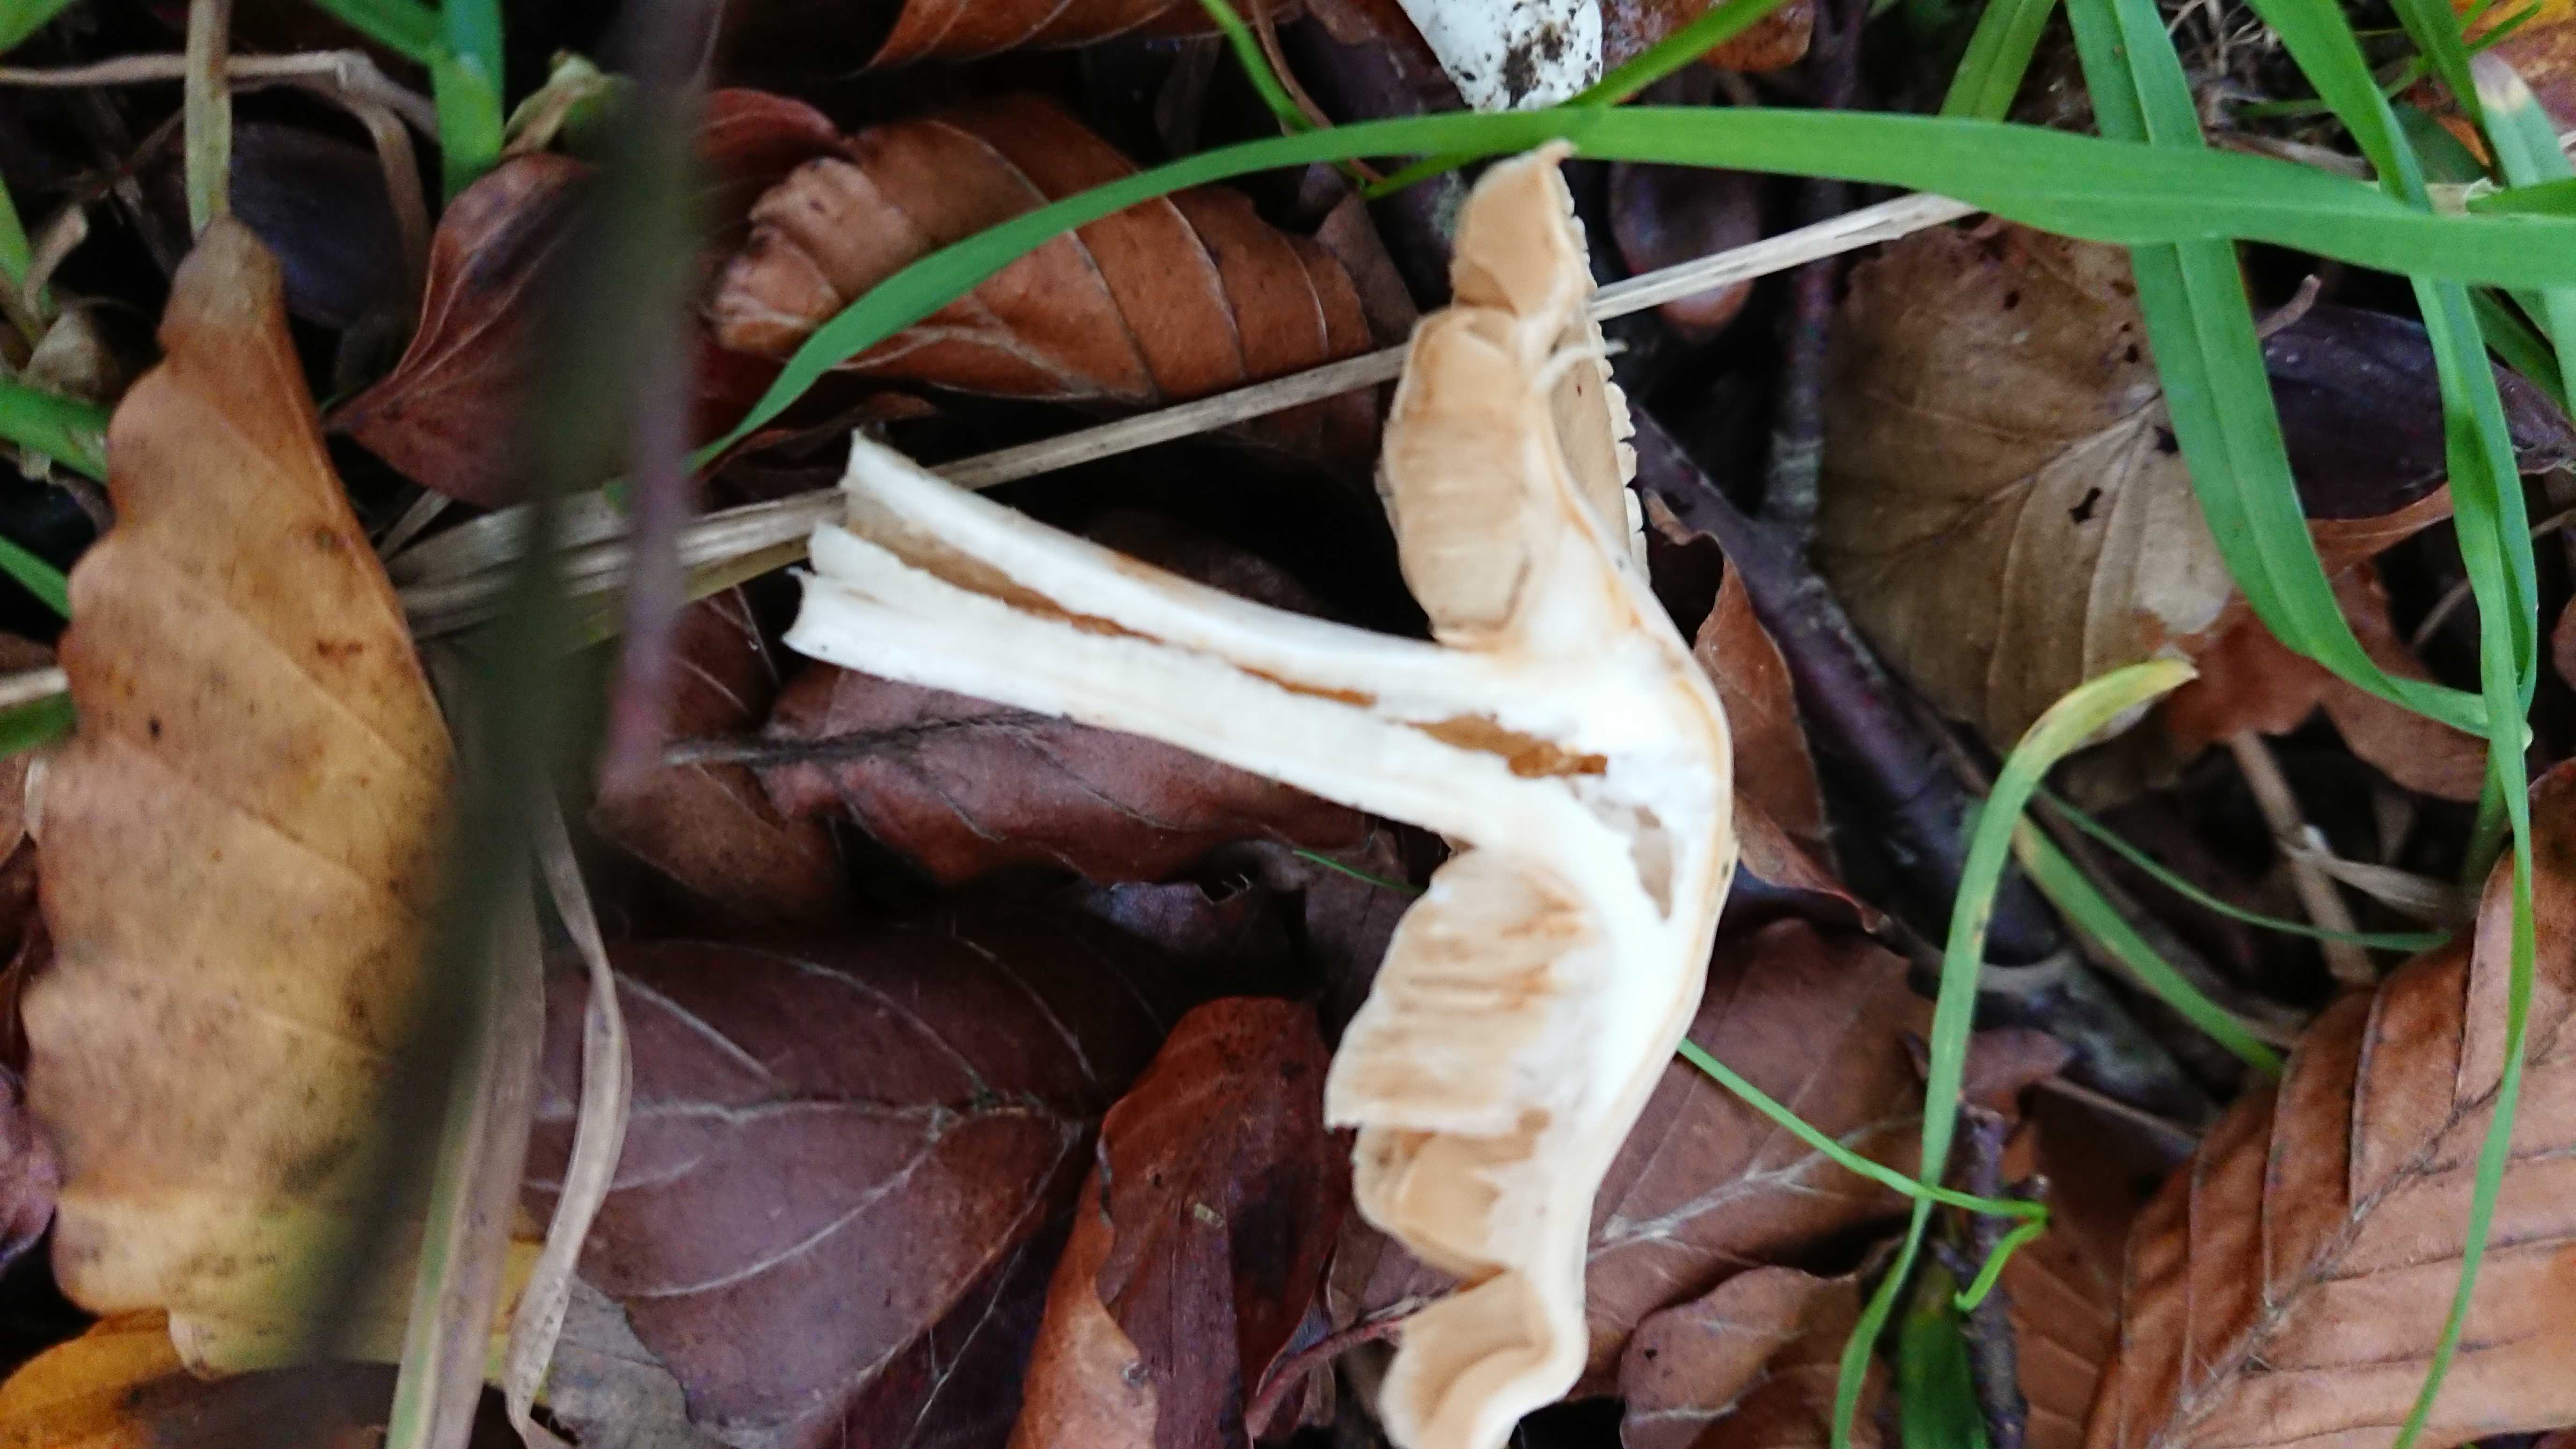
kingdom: Fungi
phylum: Basidiomycota
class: Agaricomycetes
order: Agaricales
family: Cortinariaceae
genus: Cortinarius
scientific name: Cortinarius
